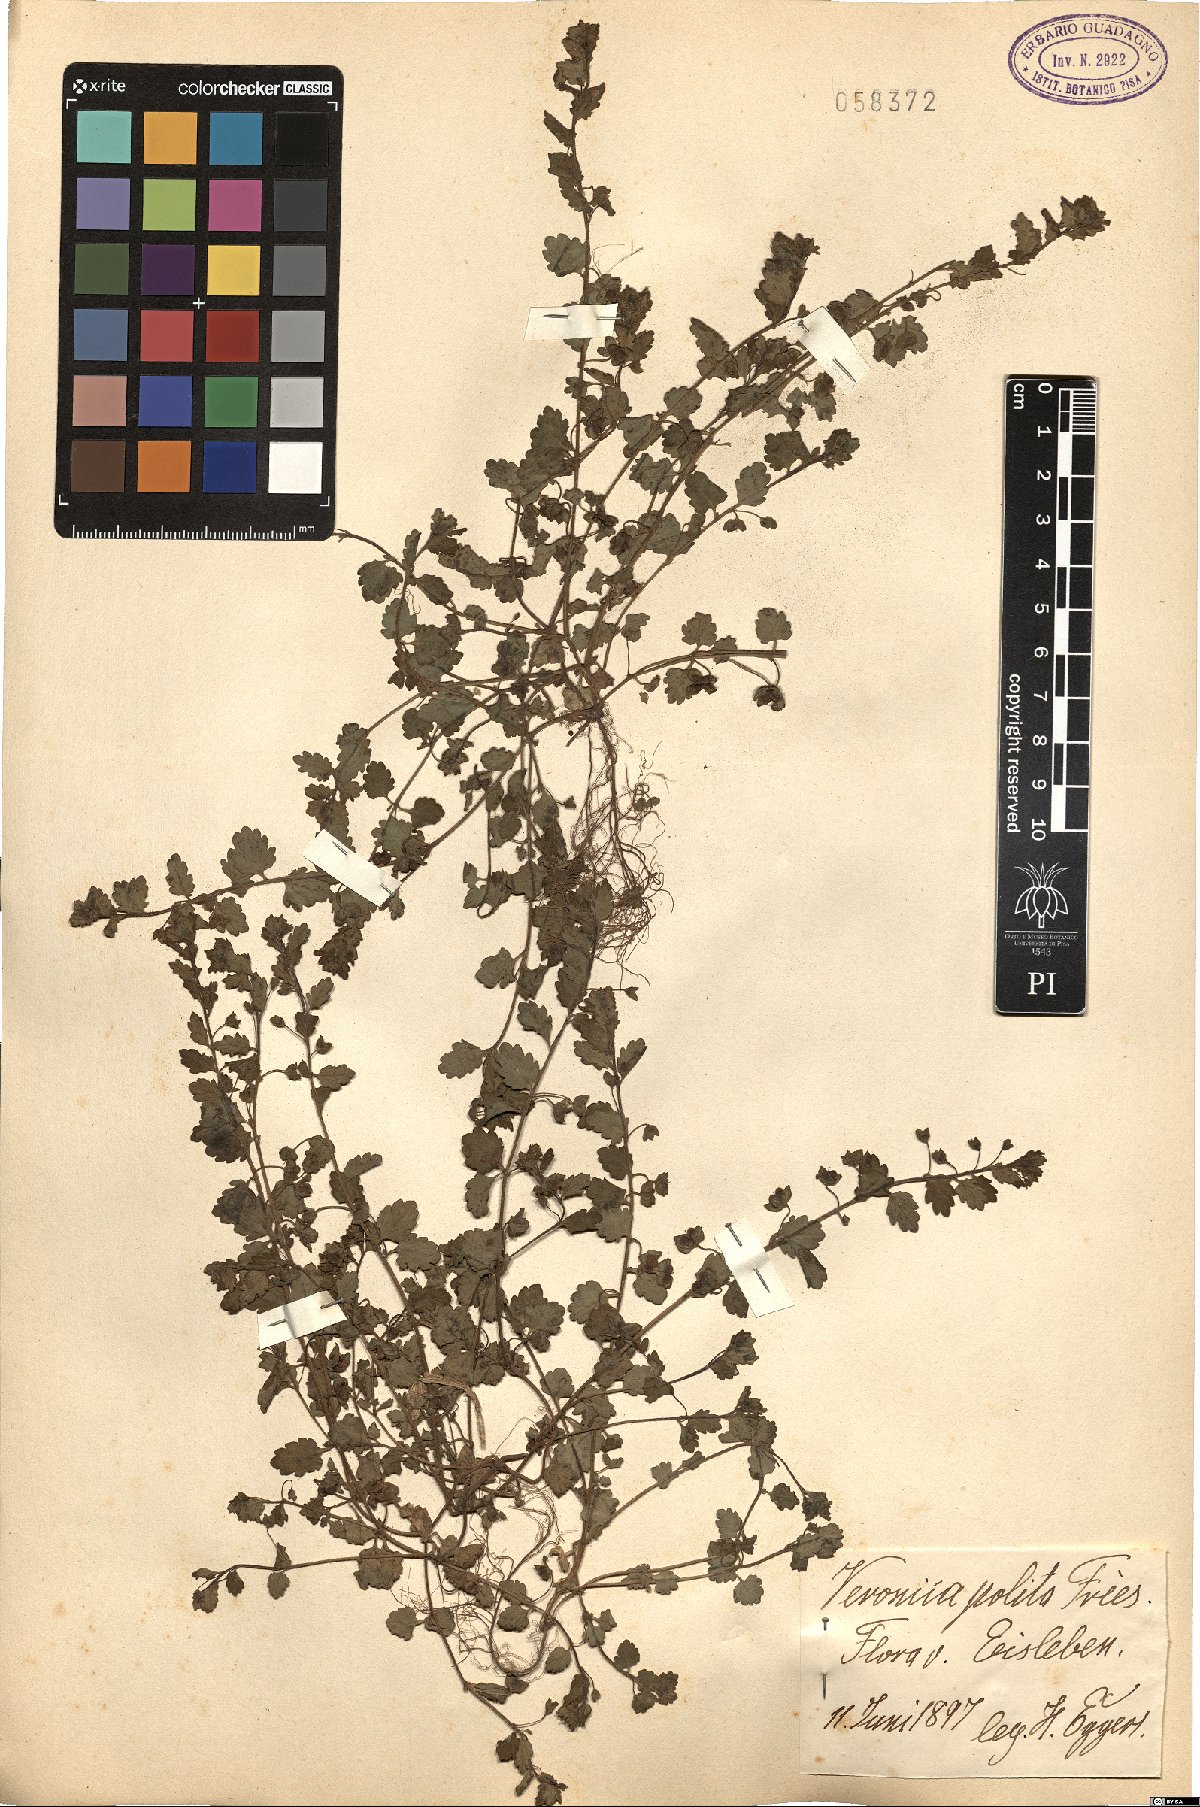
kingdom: Plantae
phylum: Tracheophyta
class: Magnoliopsida
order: Lamiales
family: Plantaginaceae
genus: Veronica
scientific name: Veronica polita
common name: Grey field-speedwell
